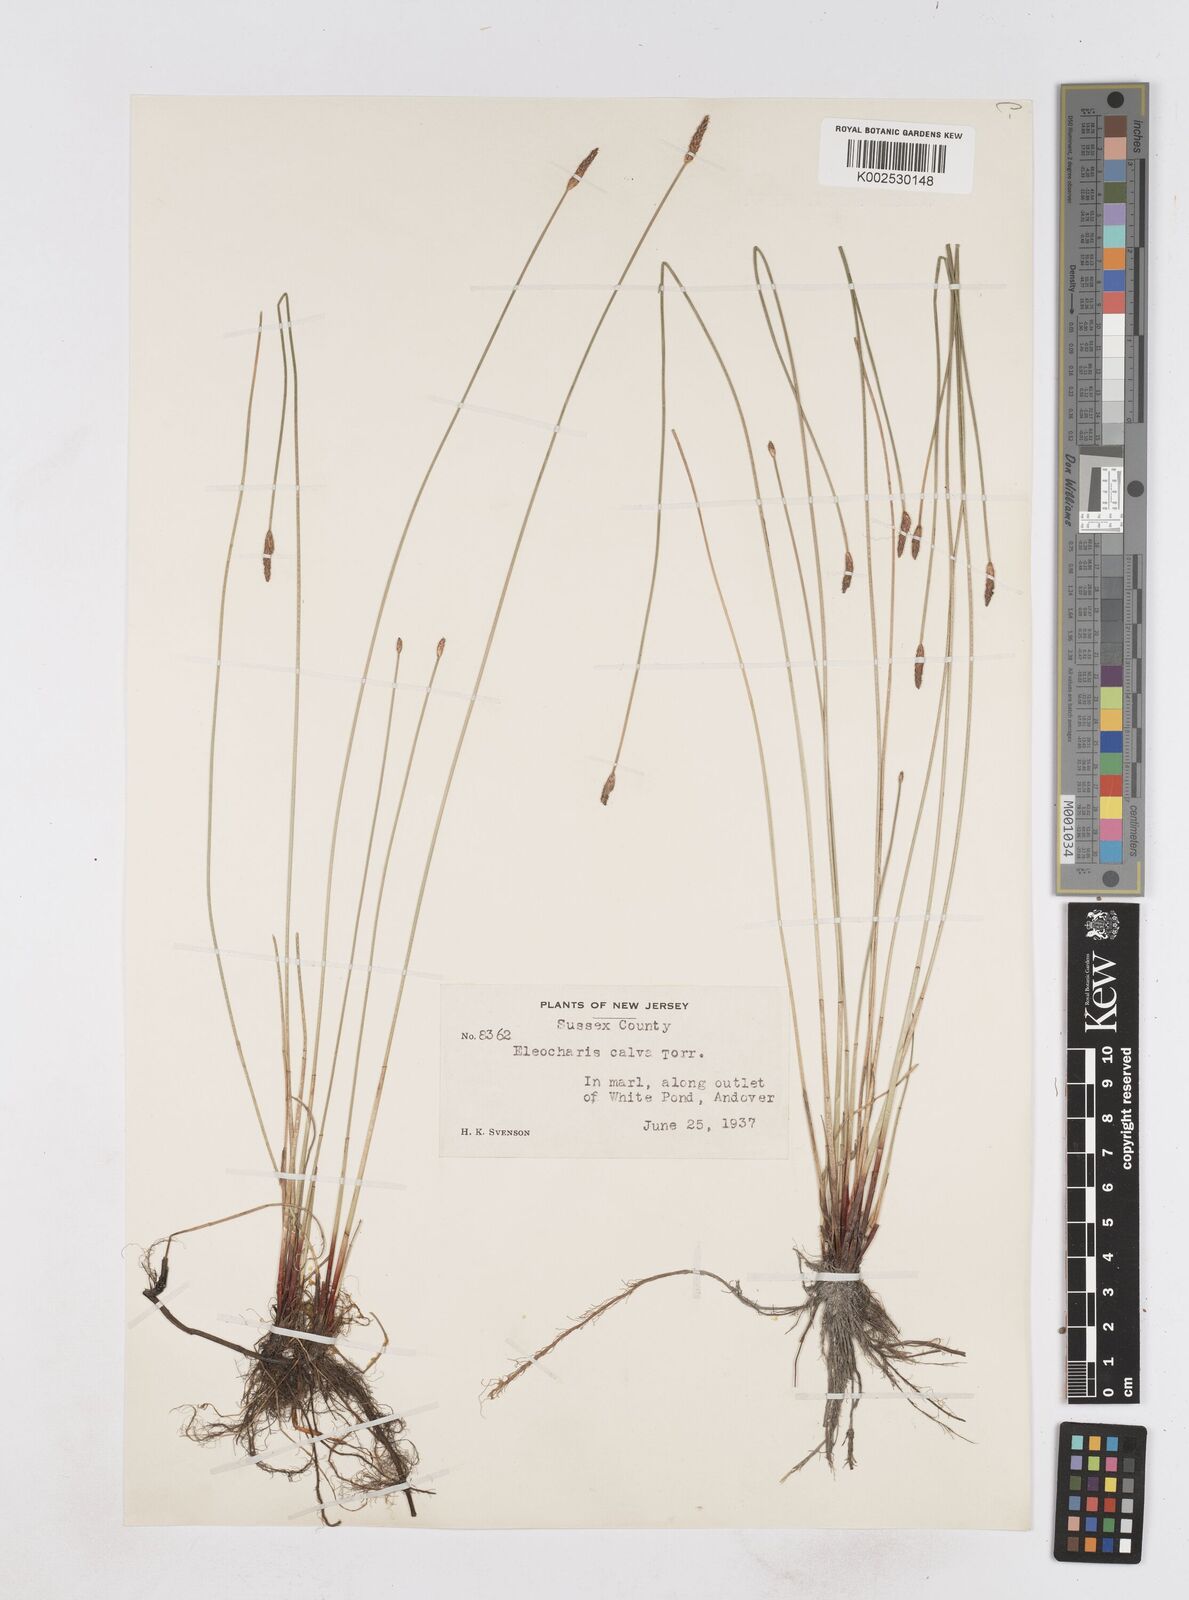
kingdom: Plantae
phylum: Tracheophyta
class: Liliopsida
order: Poales
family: Cyperaceae
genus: Eleocharis
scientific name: Eleocharis erythropoda
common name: Bald spikerush
